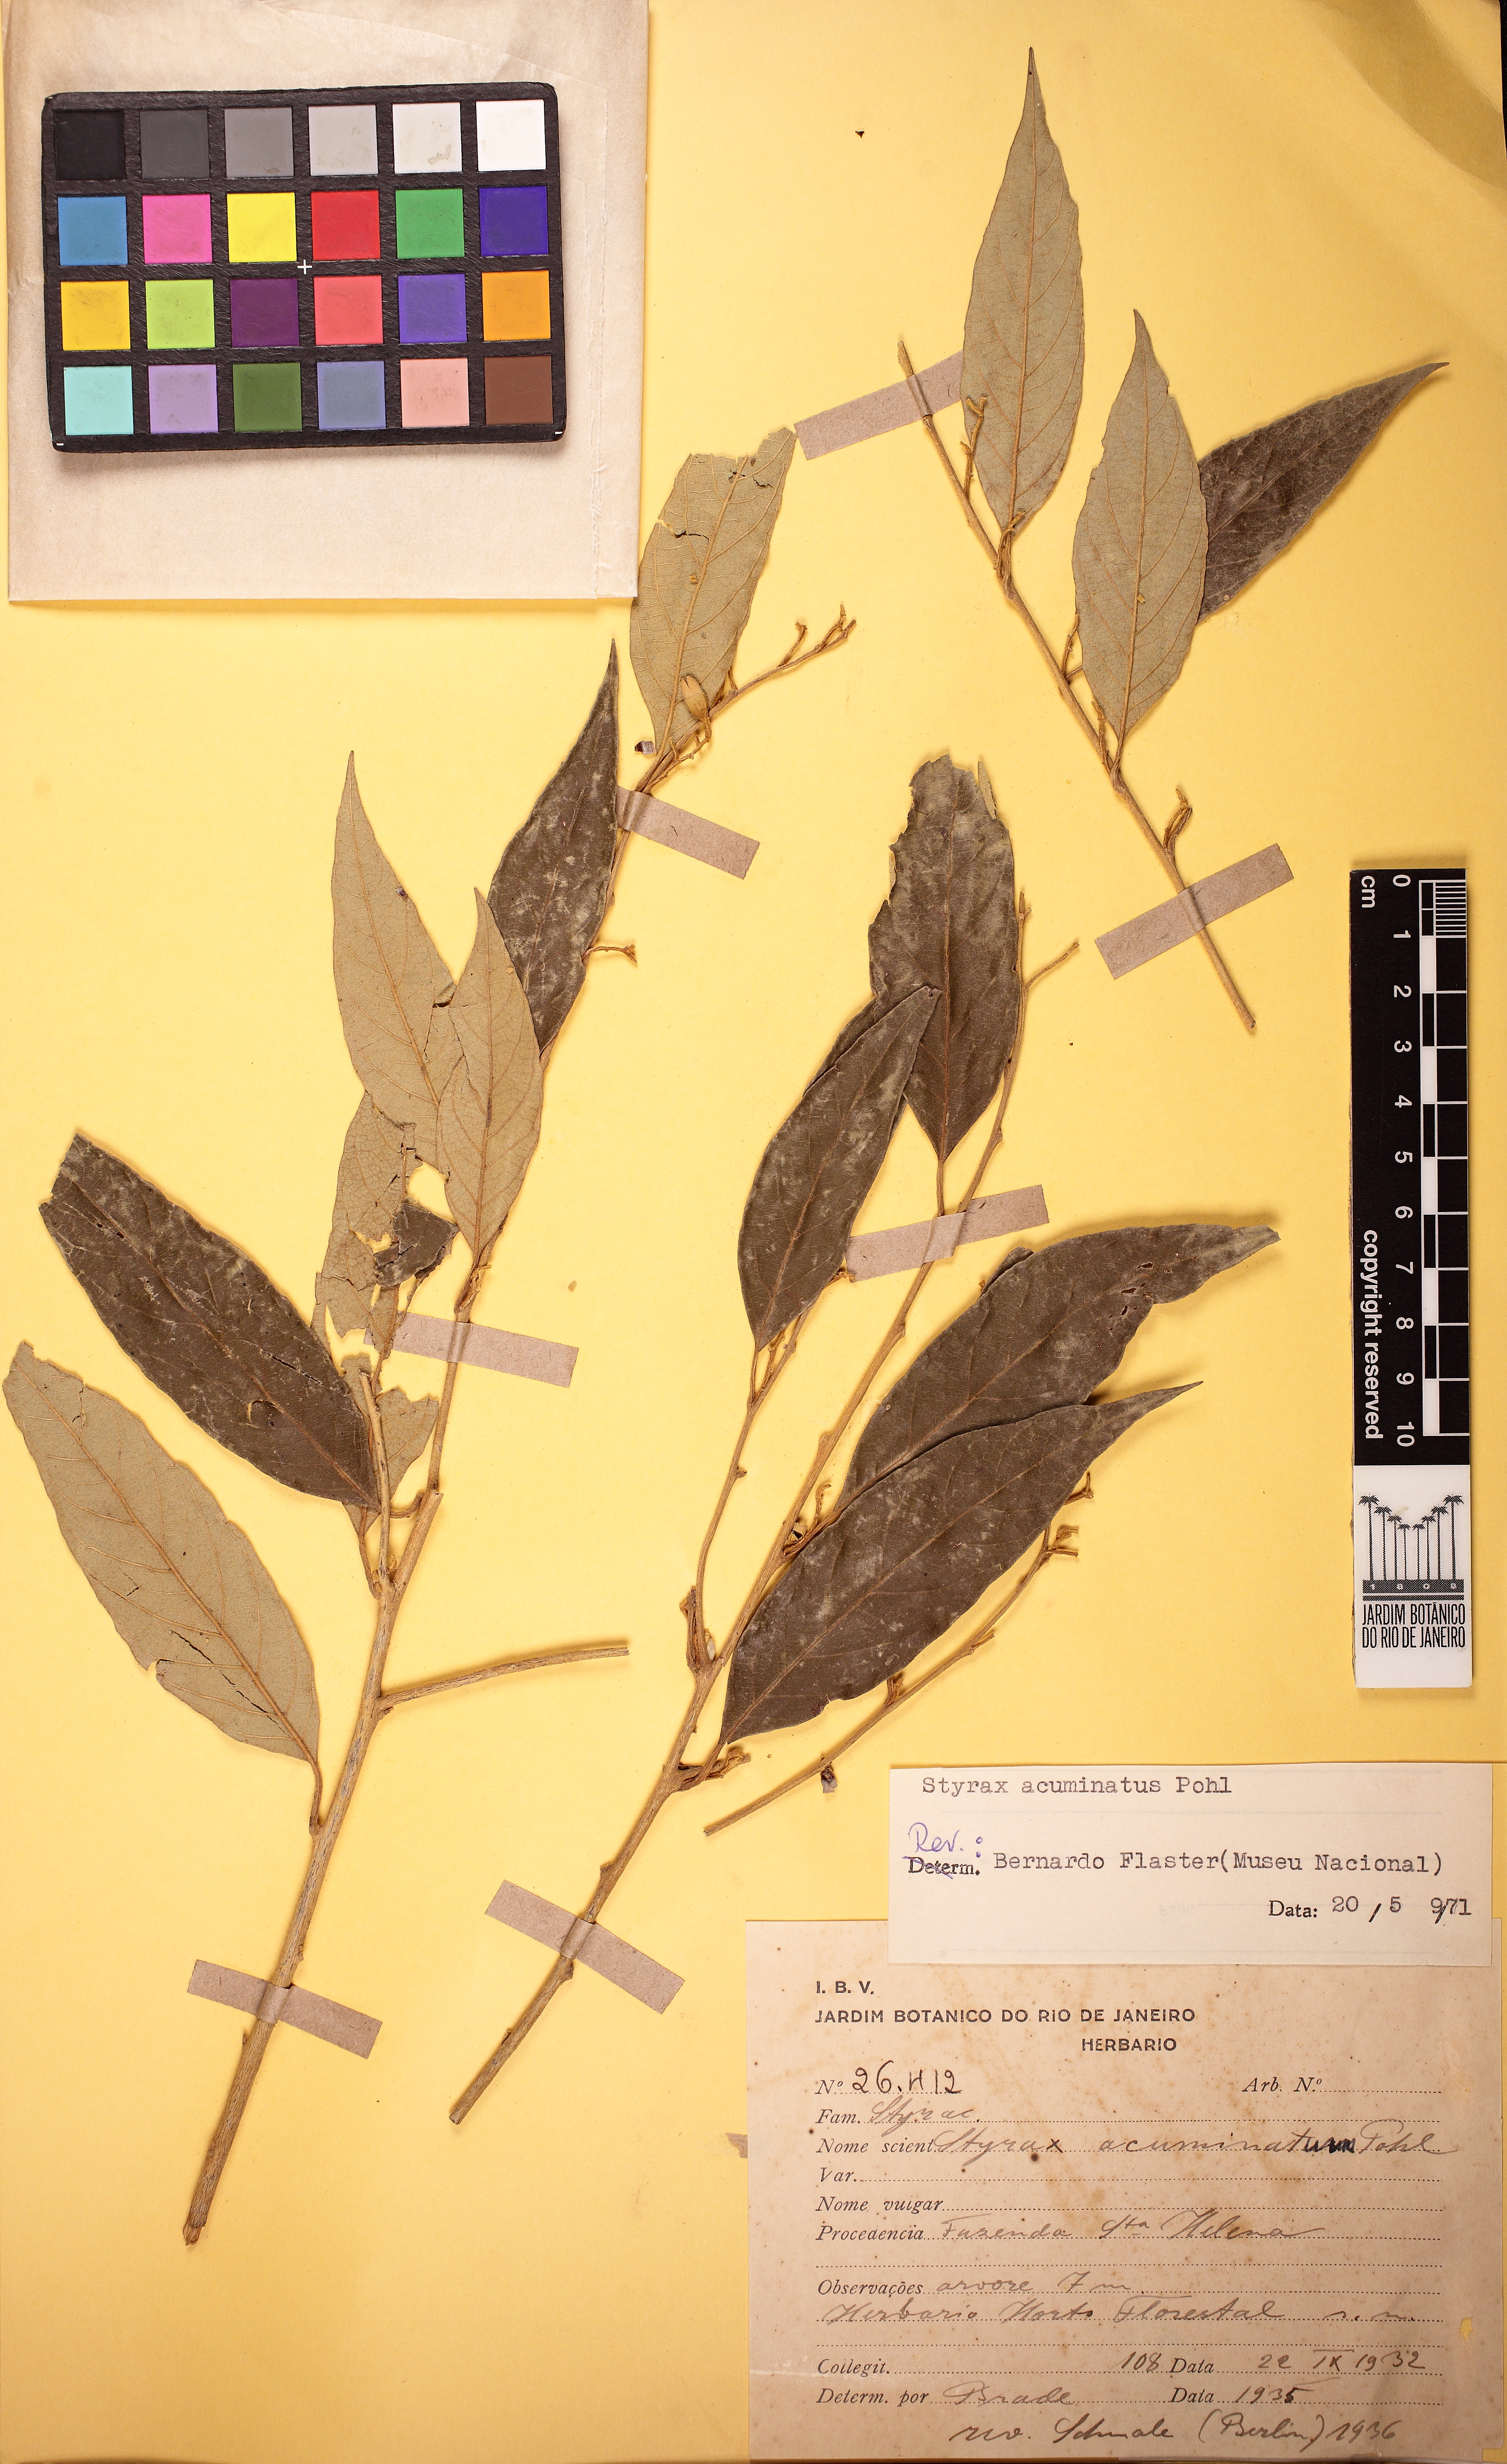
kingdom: Plantae
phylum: Tracheophyta
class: Magnoliopsida
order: Ericales
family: Styracaceae
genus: Styrax
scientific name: Styrax lancifolius
